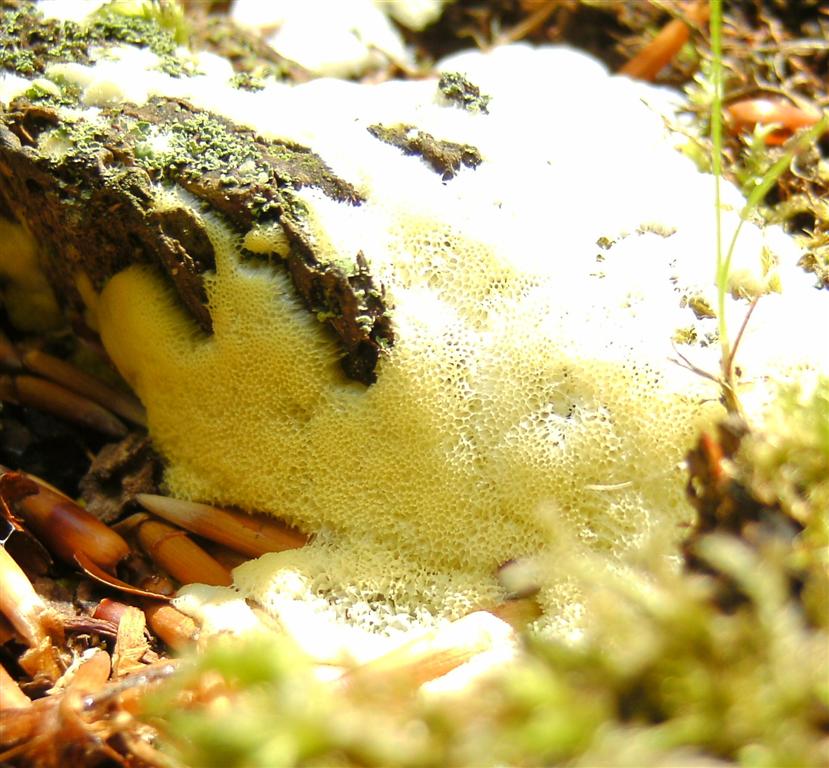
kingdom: Protozoa
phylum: Mycetozoa
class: Protosteliomycetes
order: Ceratiomyxales
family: Ceratiomyxaceae
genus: Ceratiomyxa
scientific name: Ceratiomyxa fruticulosa
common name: Honeycomb coral slime mold
